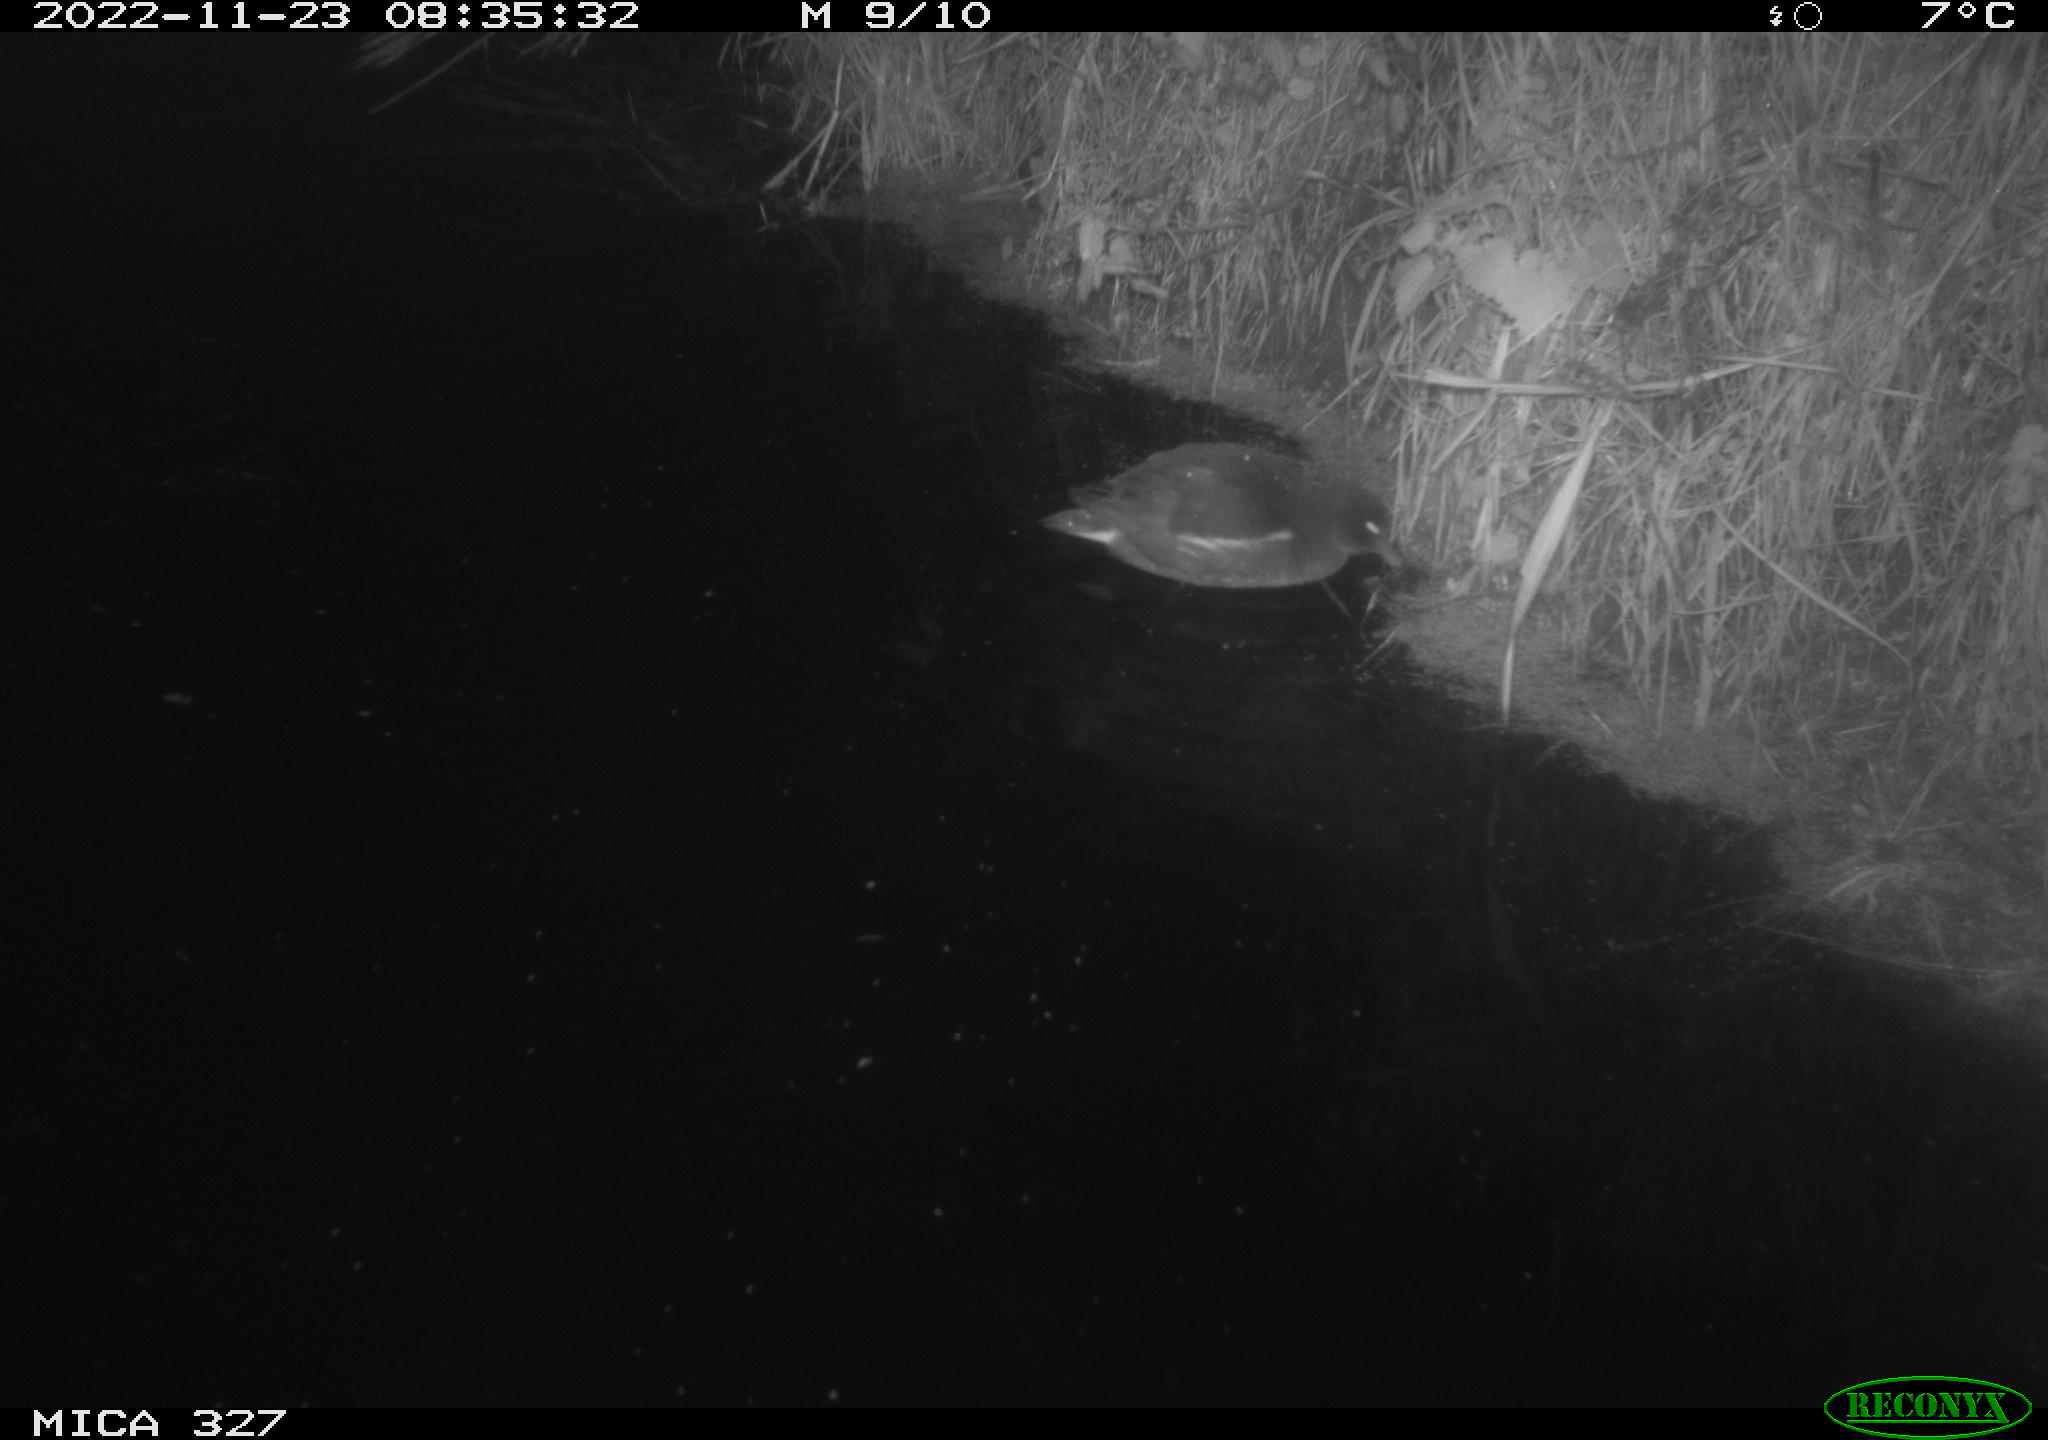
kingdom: Animalia
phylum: Chordata
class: Aves
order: Gruiformes
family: Rallidae
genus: Gallinula
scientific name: Gallinula chloropus
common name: Common moorhen
